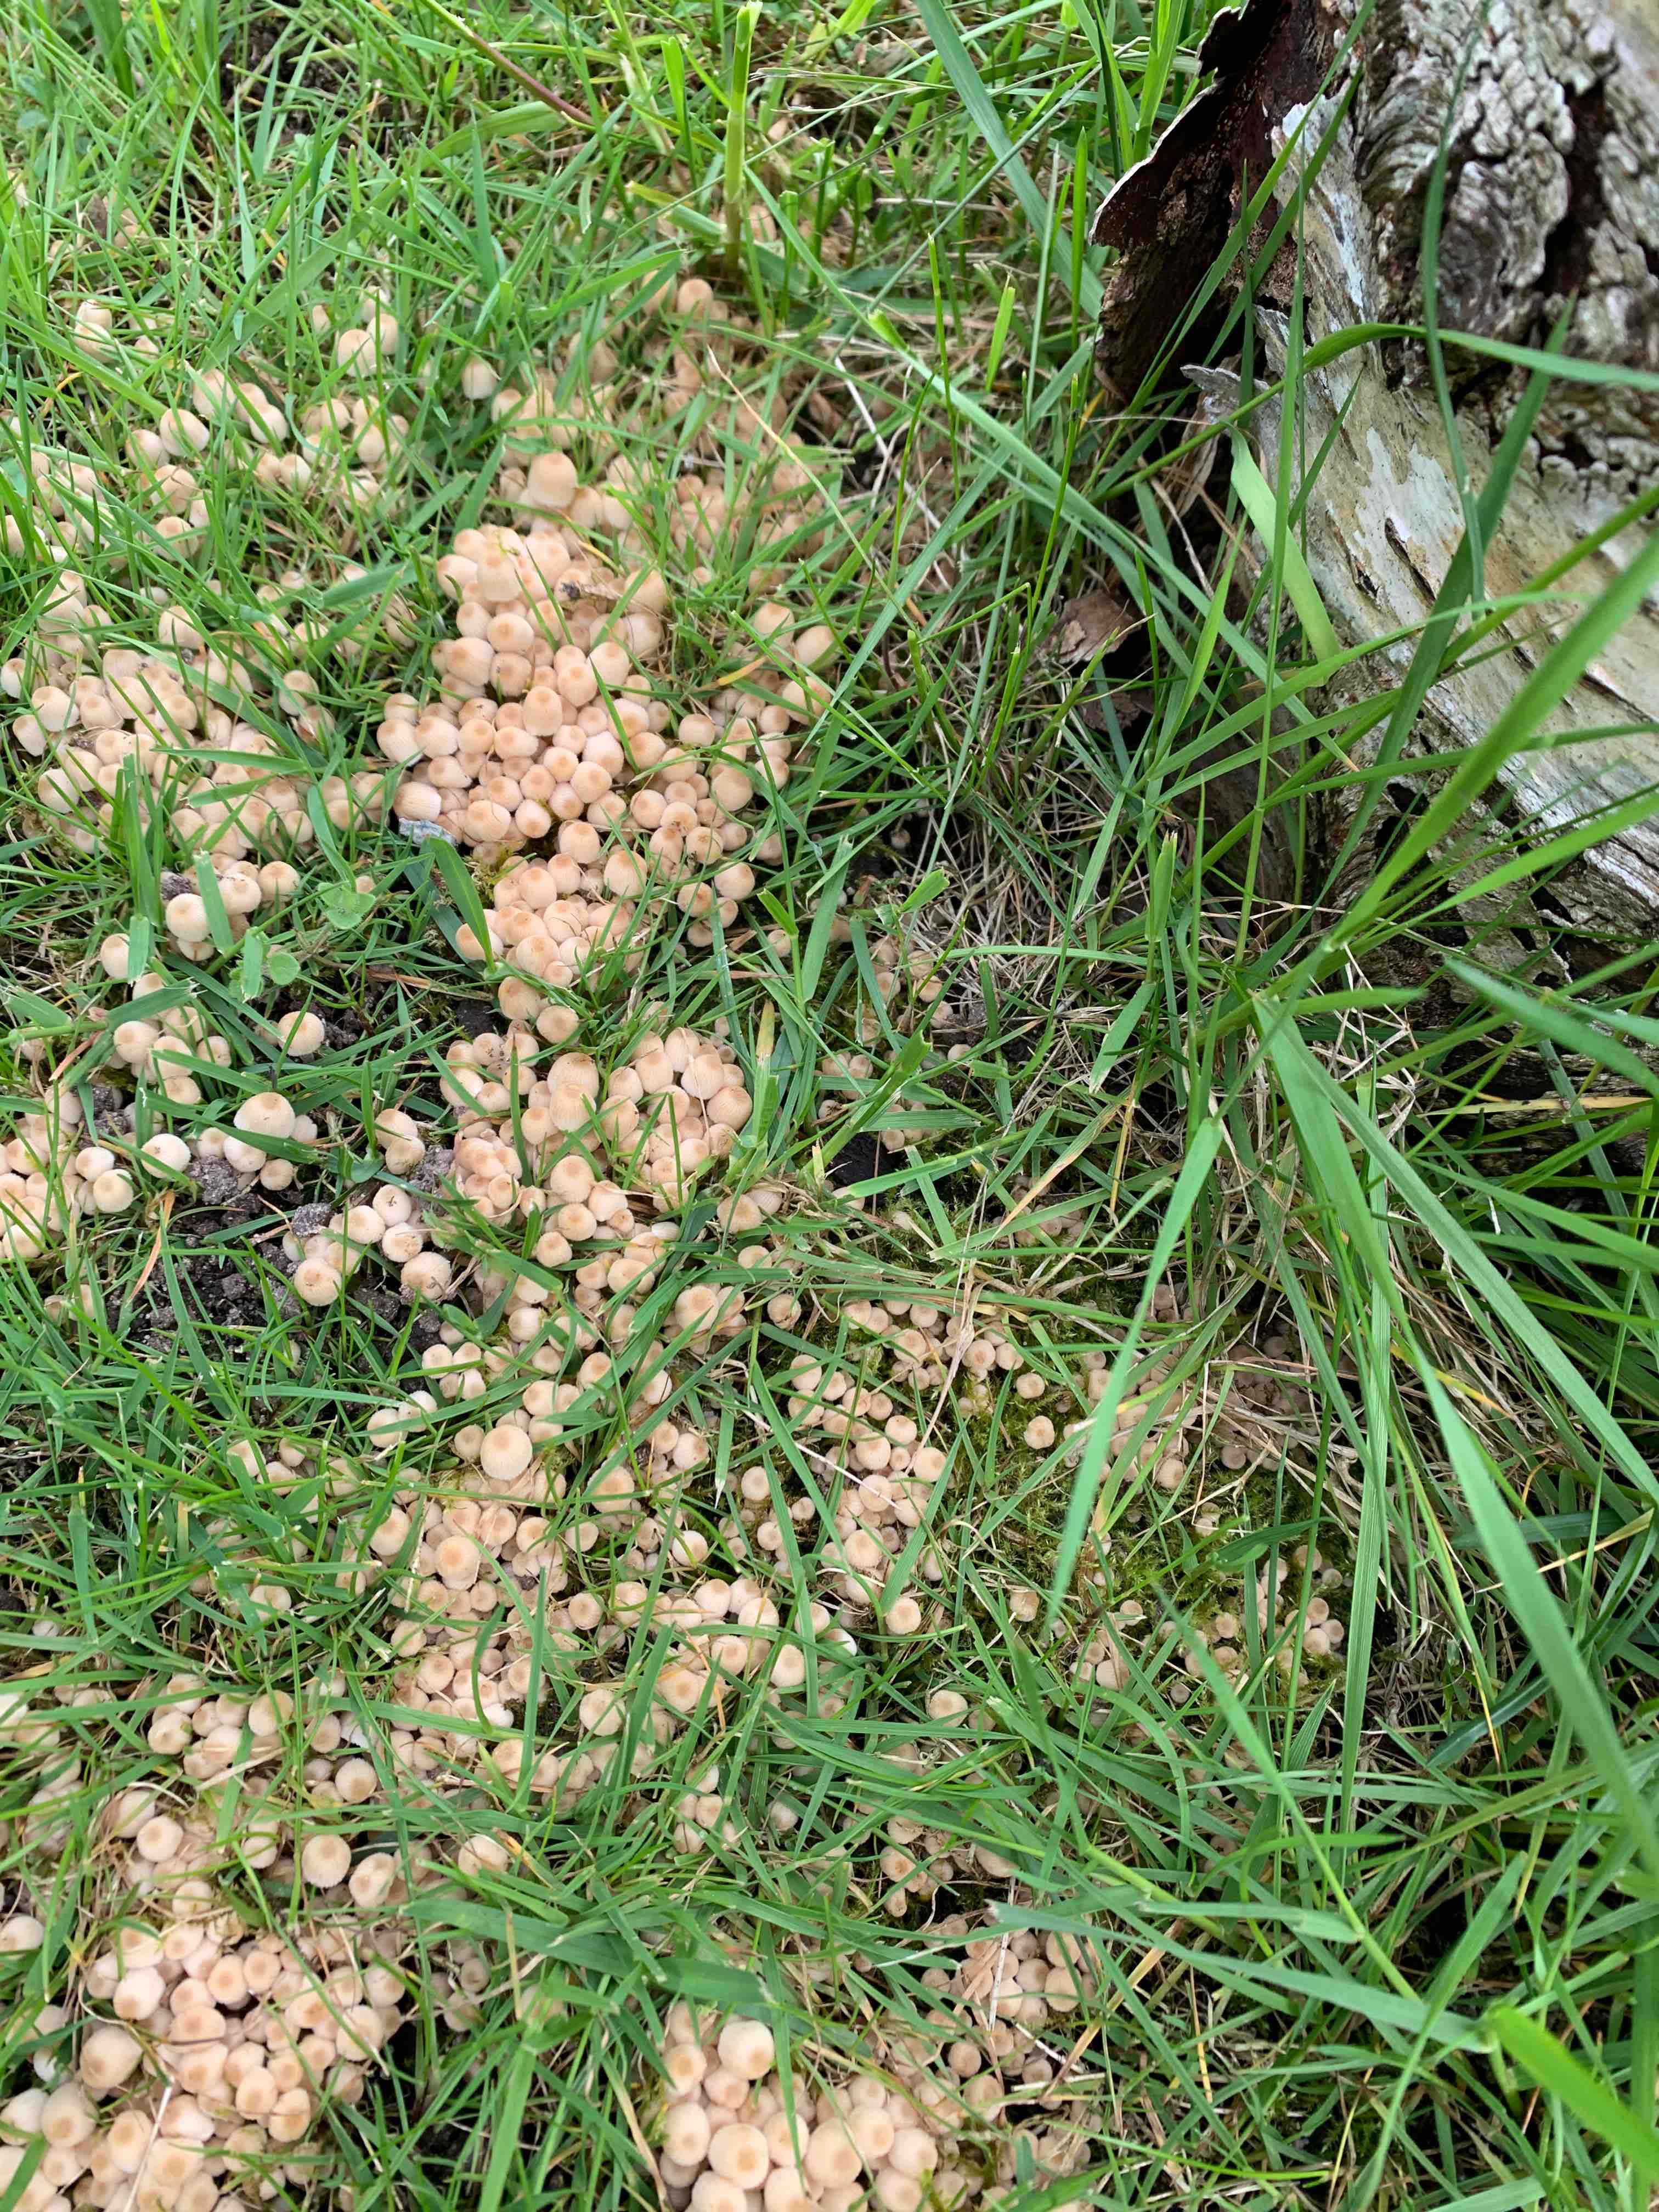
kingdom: Fungi
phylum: Basidiomycota
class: Agaricomycetes
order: Agaricales
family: Psathyrellaceae
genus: Coprinellus
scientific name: Coprinellus disseminatus
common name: bredsået blækhat
